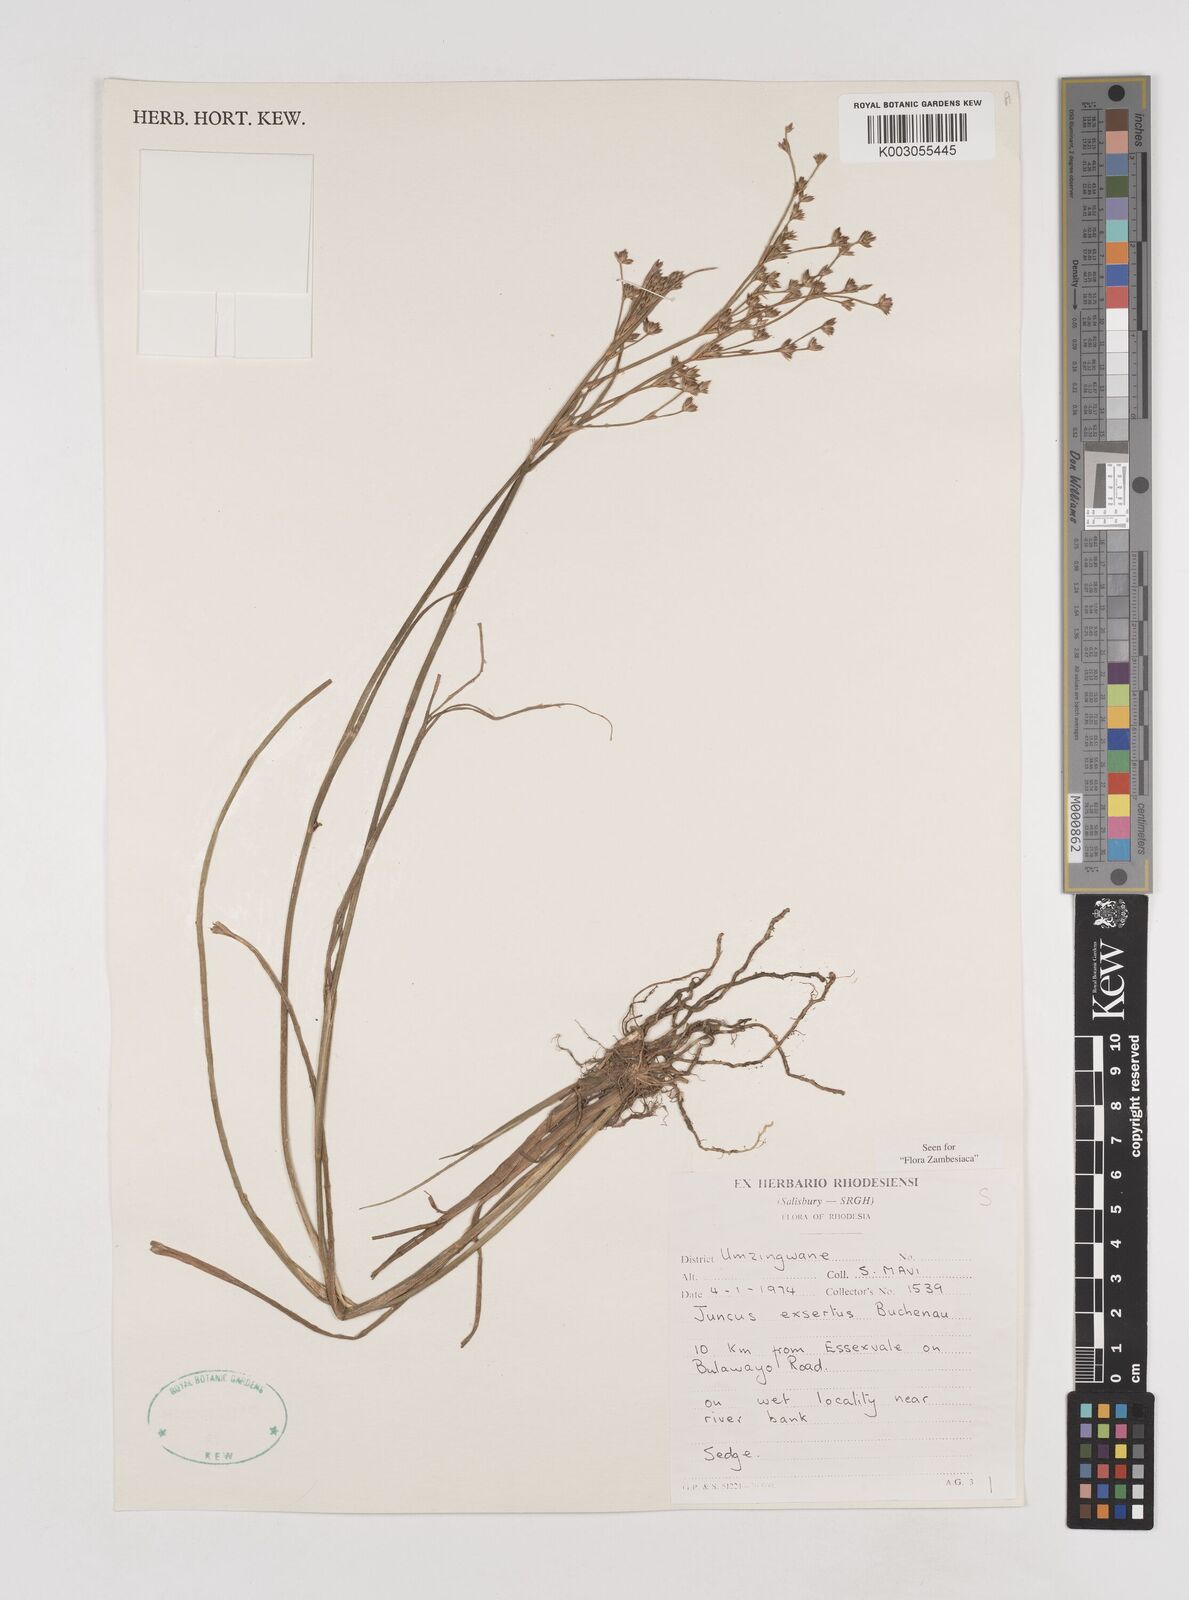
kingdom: Plantae
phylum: Tracheophyta
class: Liliopsida
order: Poales
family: Juncaceae
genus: Juncus
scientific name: Juncus exsertus
